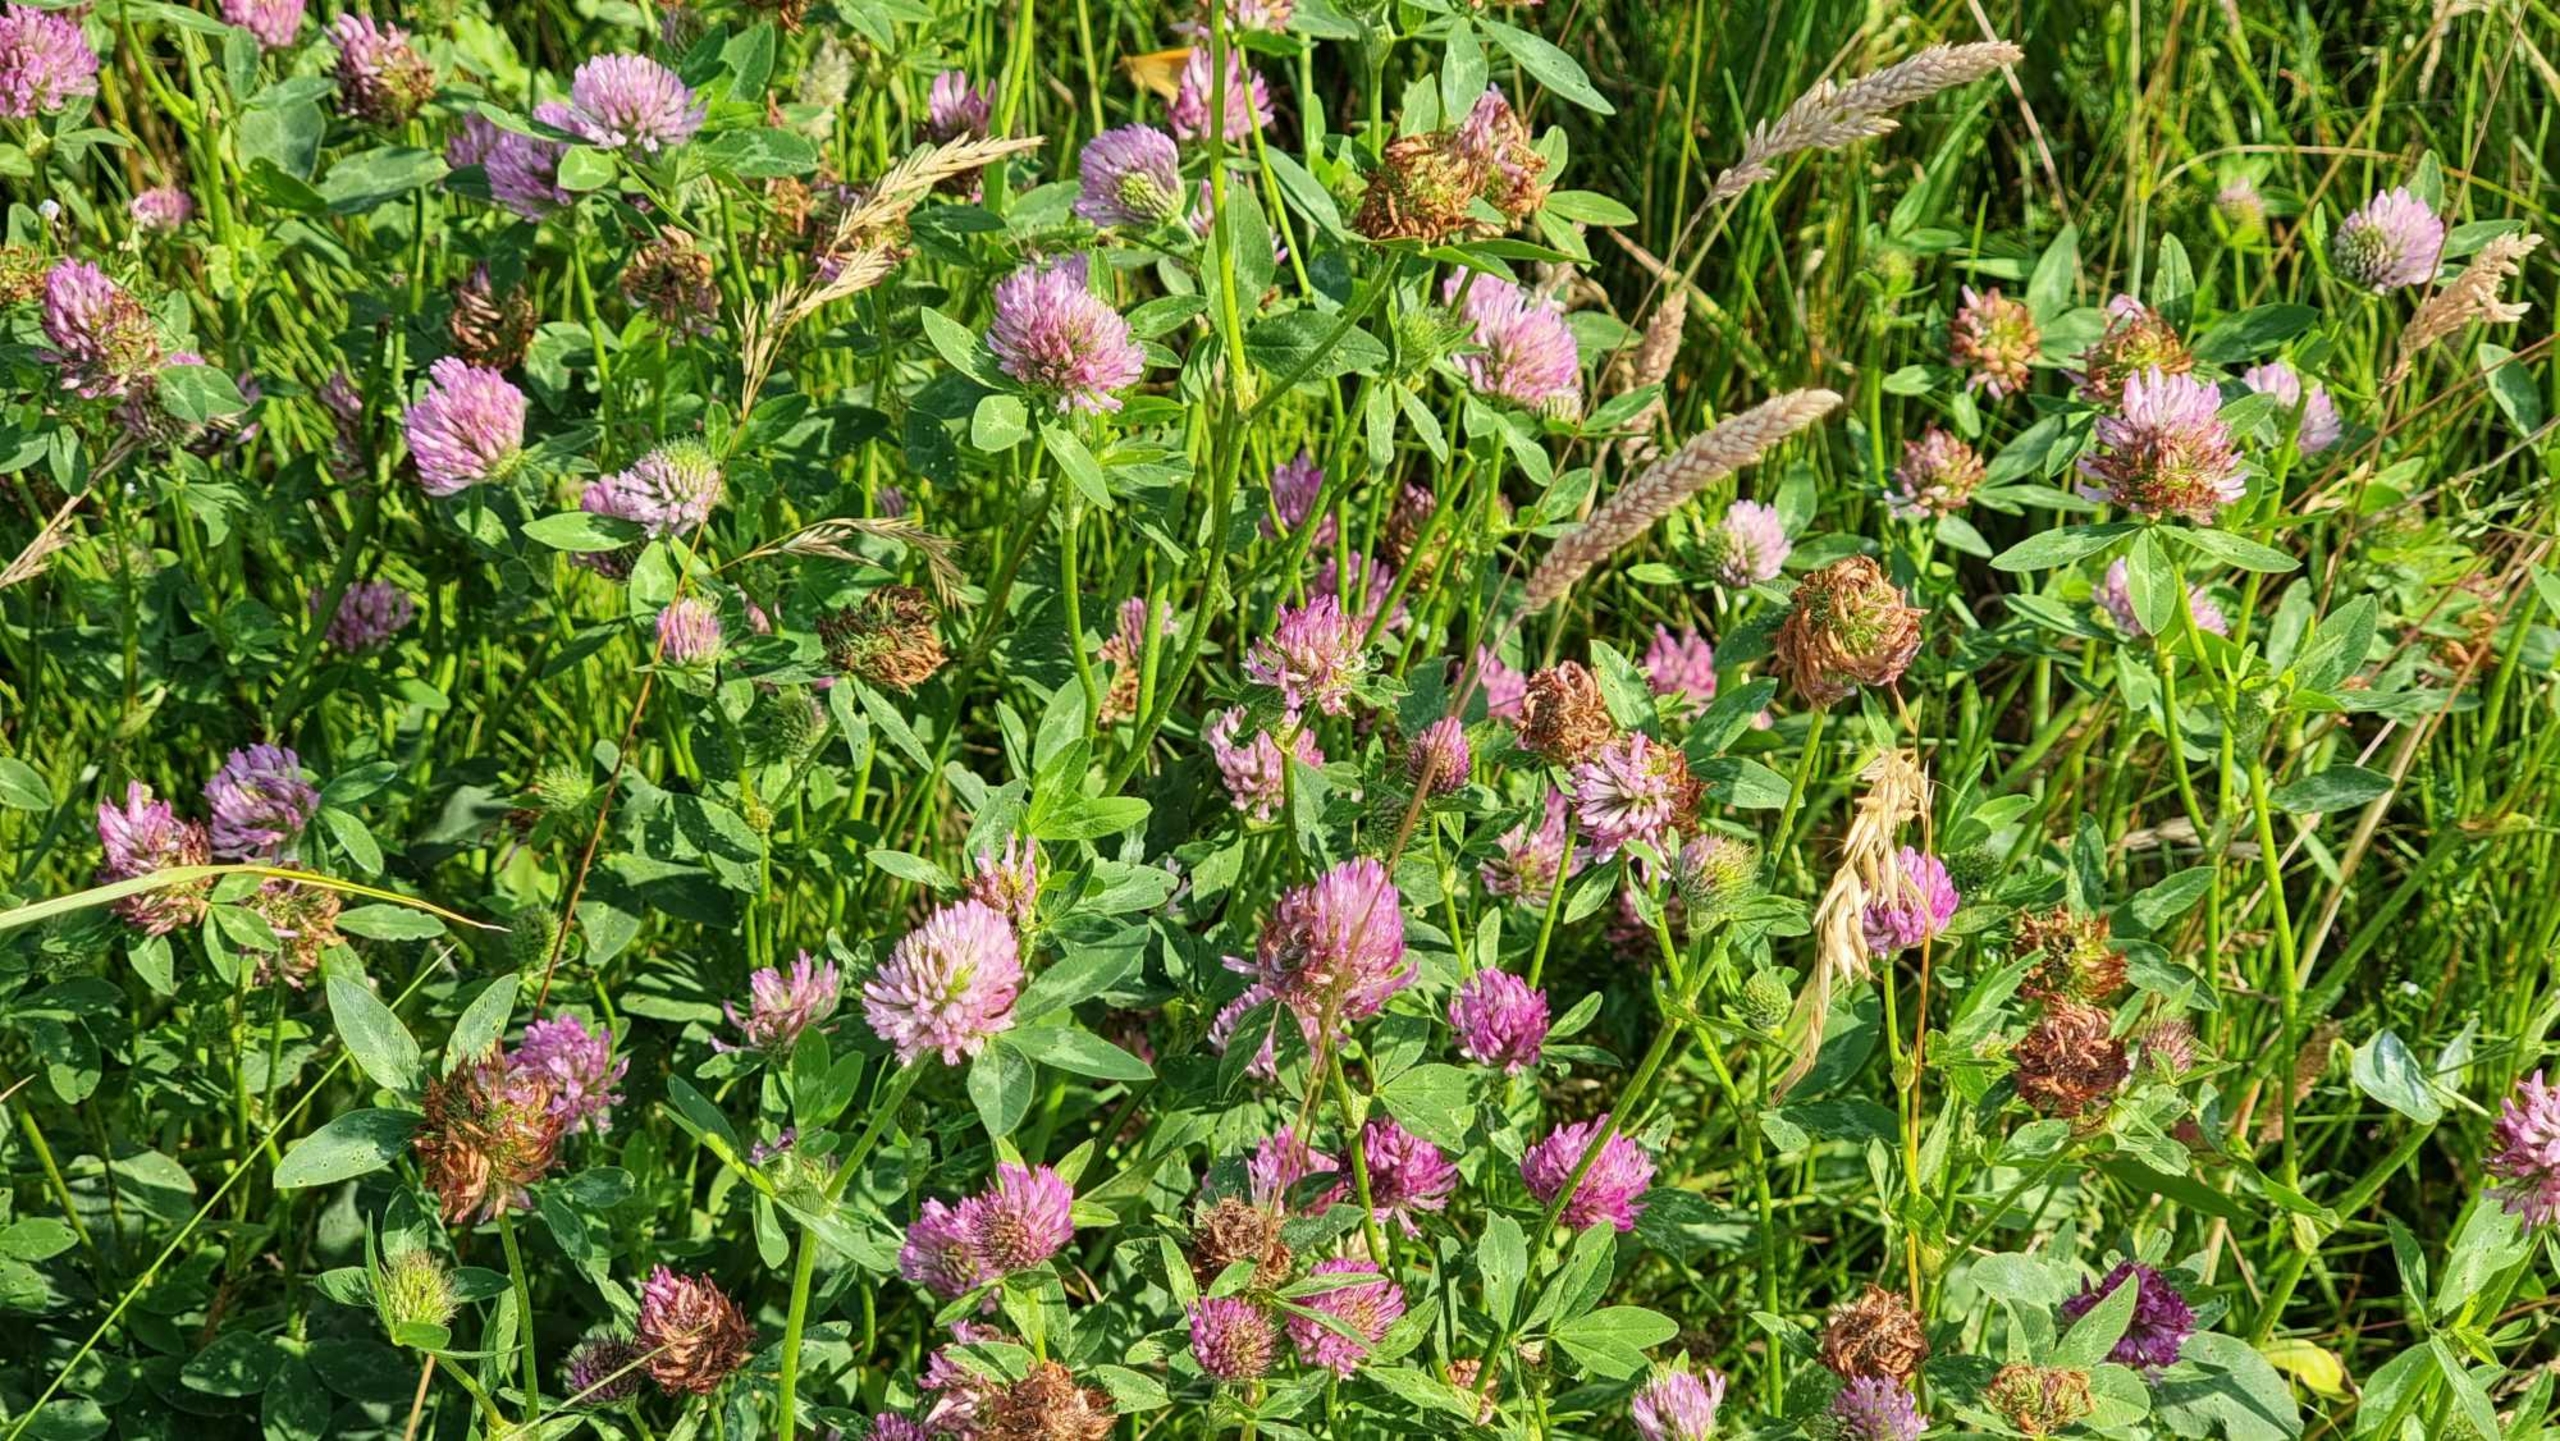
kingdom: Plantae
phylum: Tracheophyta
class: Magnoliopsida
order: Fabales
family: Fabaceae
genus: Trifolium
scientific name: Trifolium pratense
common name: Rød-kløver
